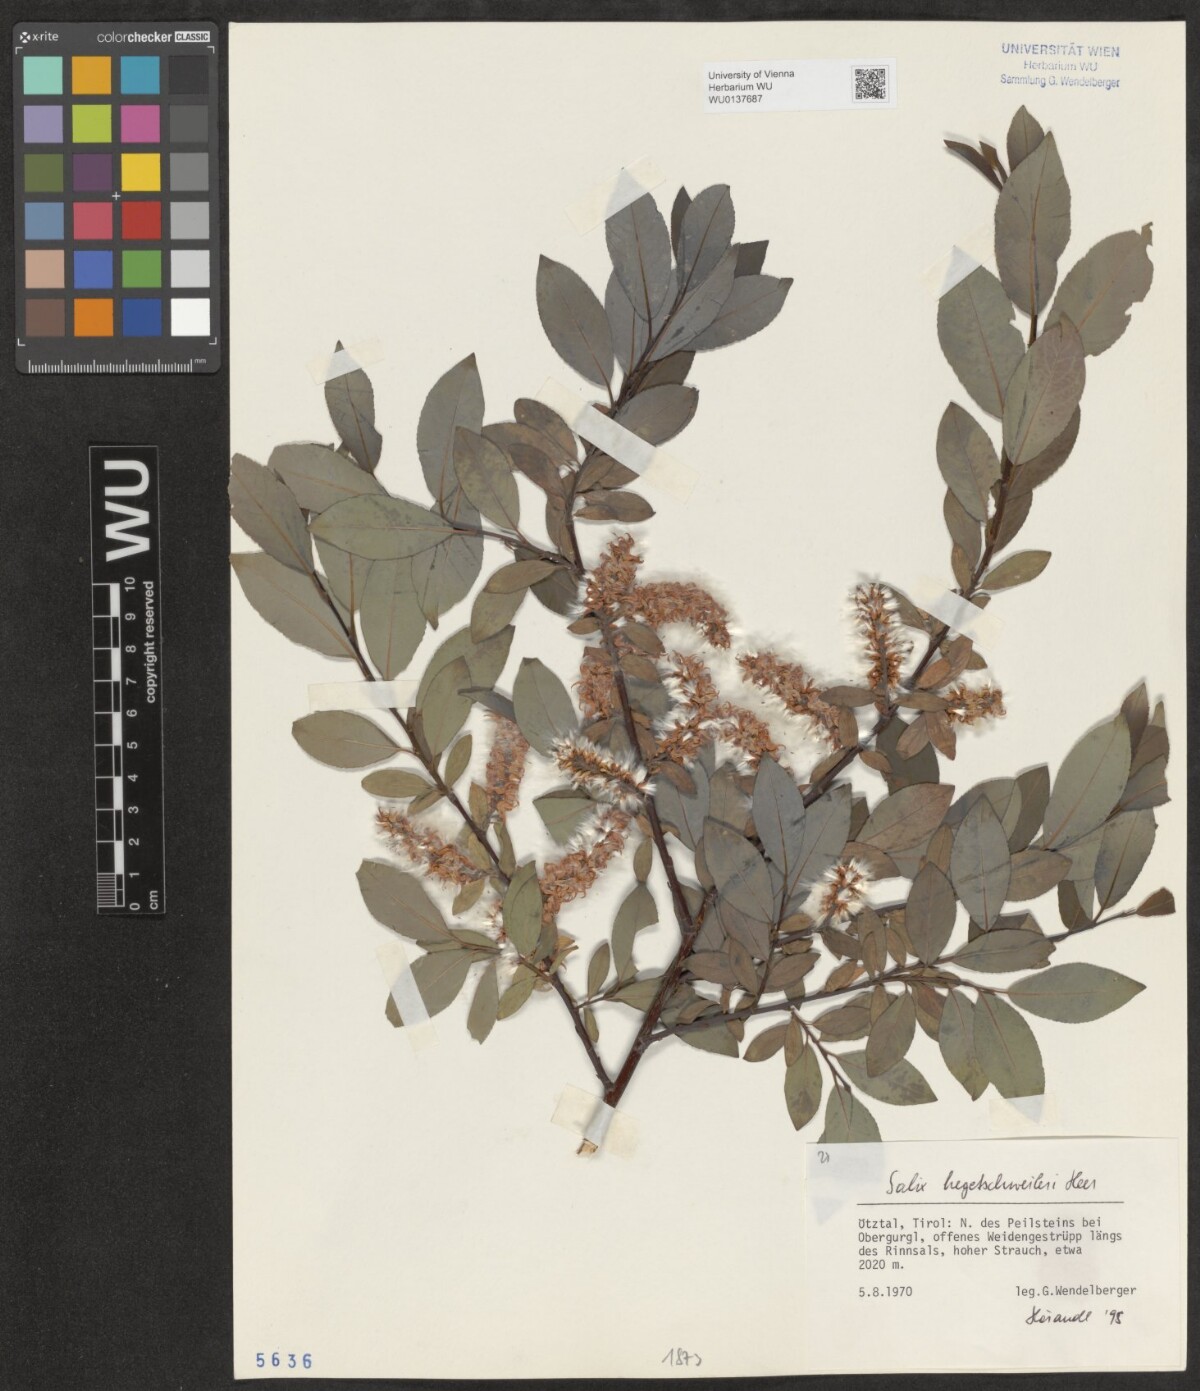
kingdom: Plantae
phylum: Tracheophyta
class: Magnoliopsida
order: Malpighiales
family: Salicaceae
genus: Salix
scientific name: Salix hegetschweileri
